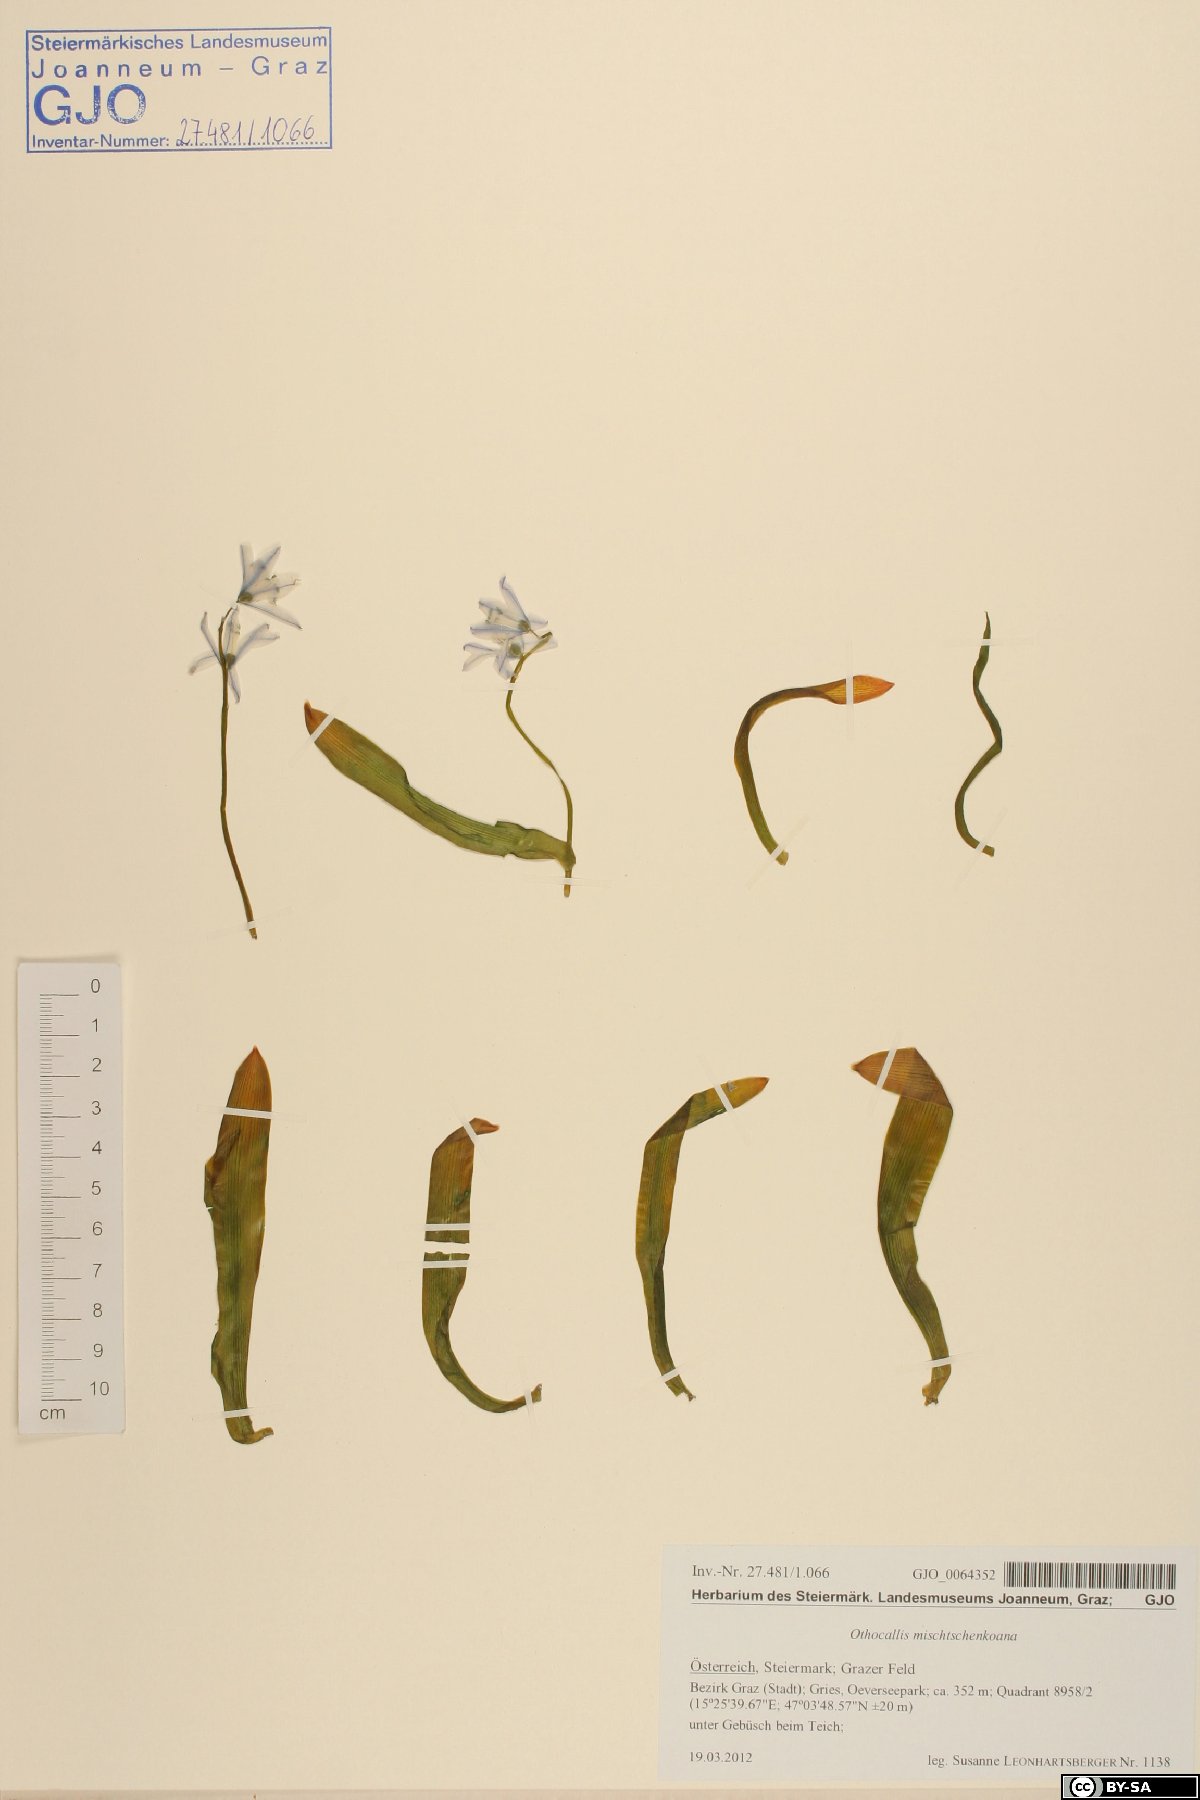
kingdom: Plantae
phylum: Tracheophyta
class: Liliopsida
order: Asparagales
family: Asparagaceae
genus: Scilla
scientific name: Scilla mischtschenkoana
